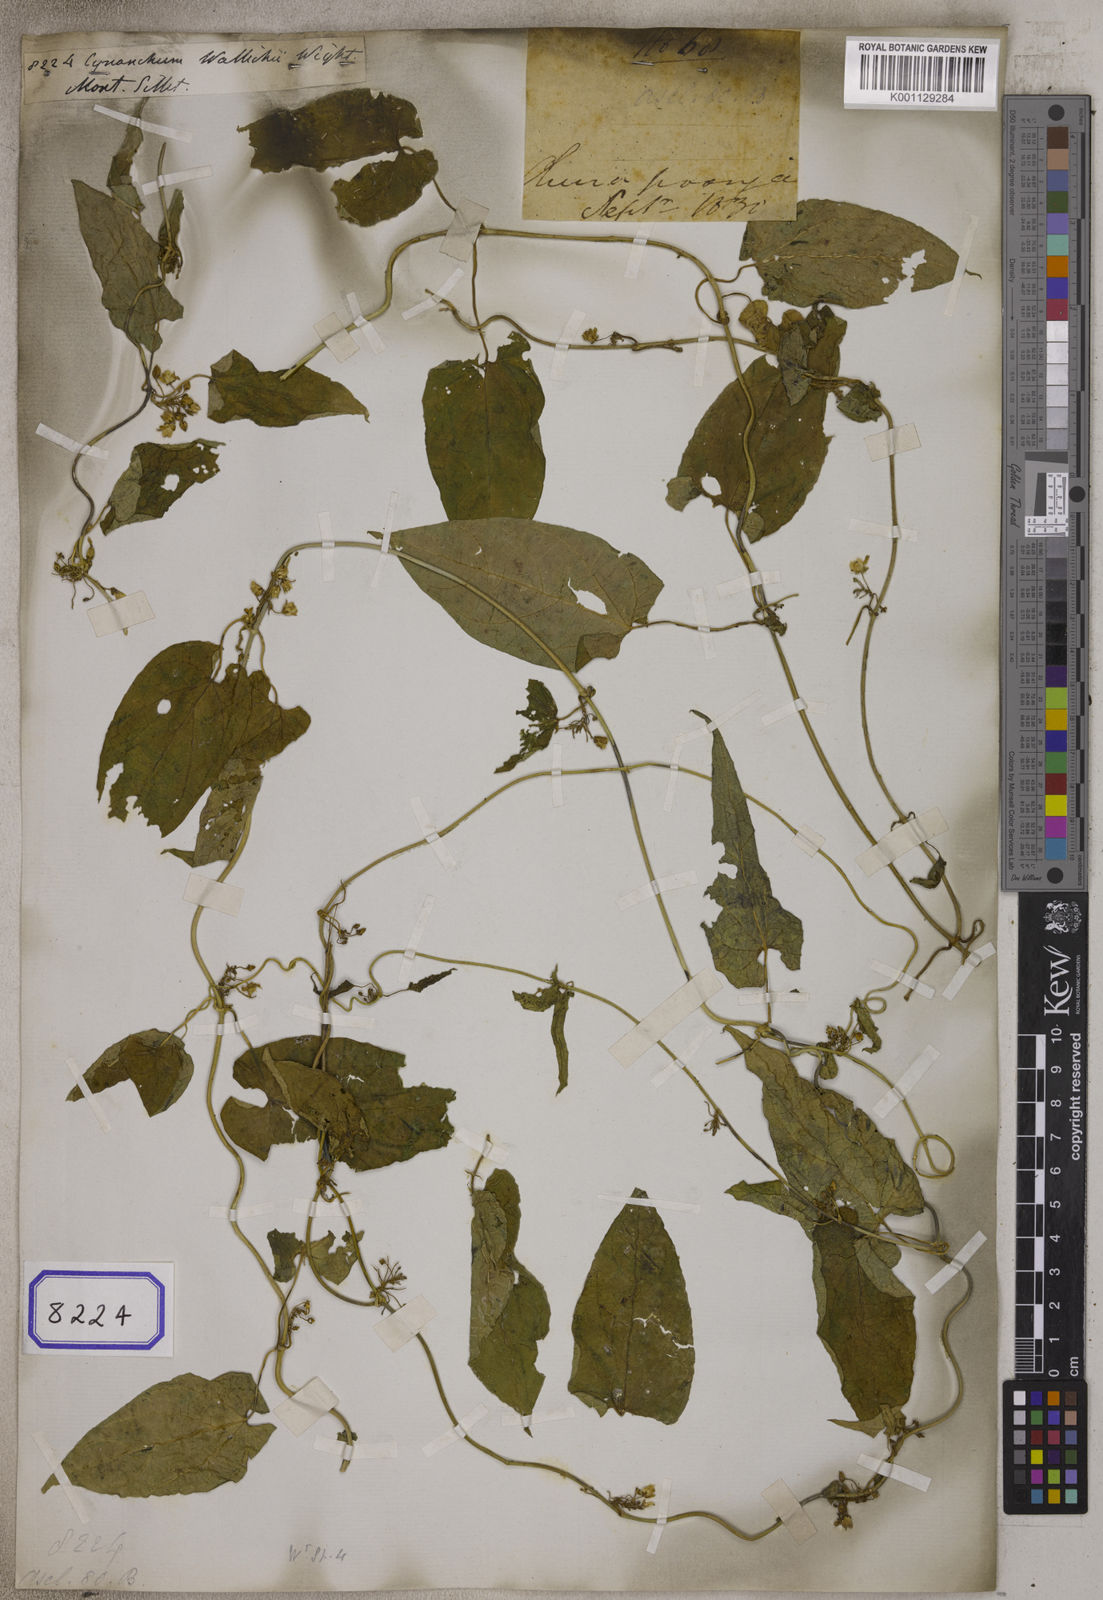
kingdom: Plantae
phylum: Tracheophyta
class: Magnoliopsida
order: Gentianales
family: Apocynaceae
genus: Cynanchum
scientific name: Cynanchum wallichii
